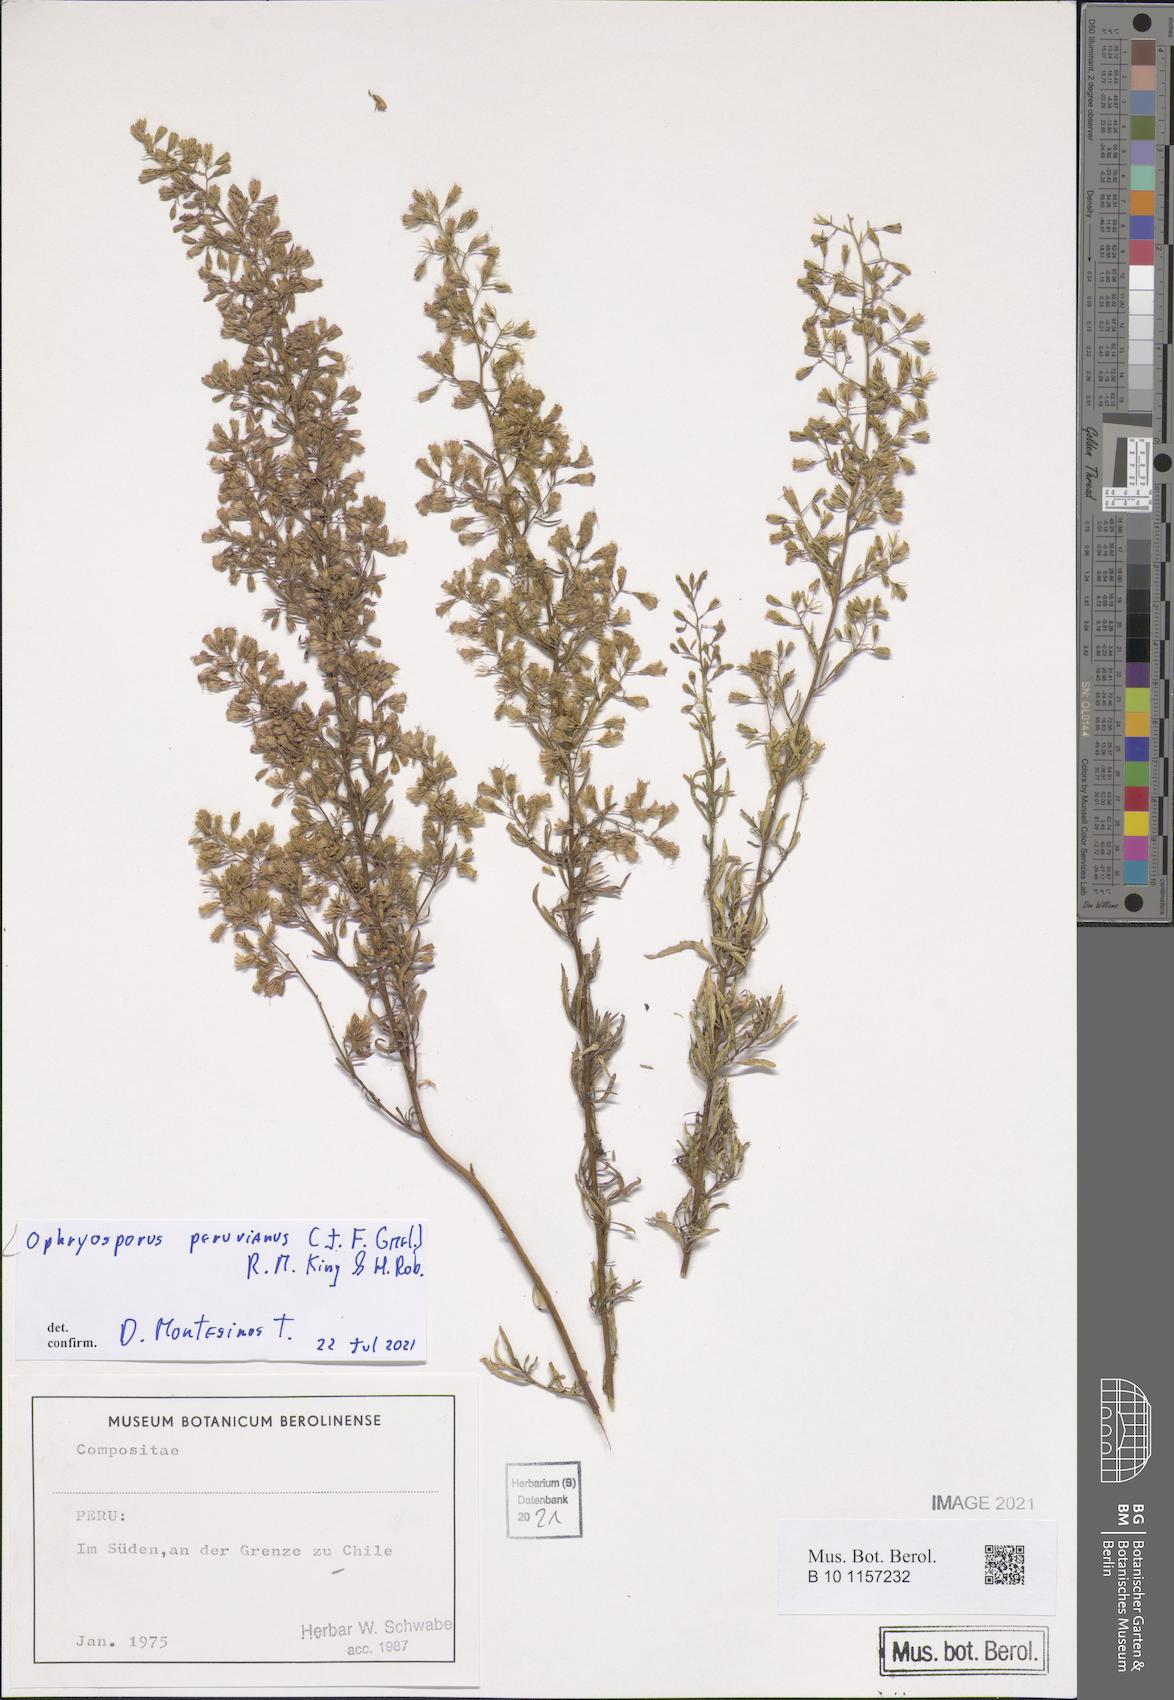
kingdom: Plantae
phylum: Tracheophyta
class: Magnoliopsida
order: Asterales
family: Asteraceae
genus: Ophryosporus
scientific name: Ophryosporus peruvianus
